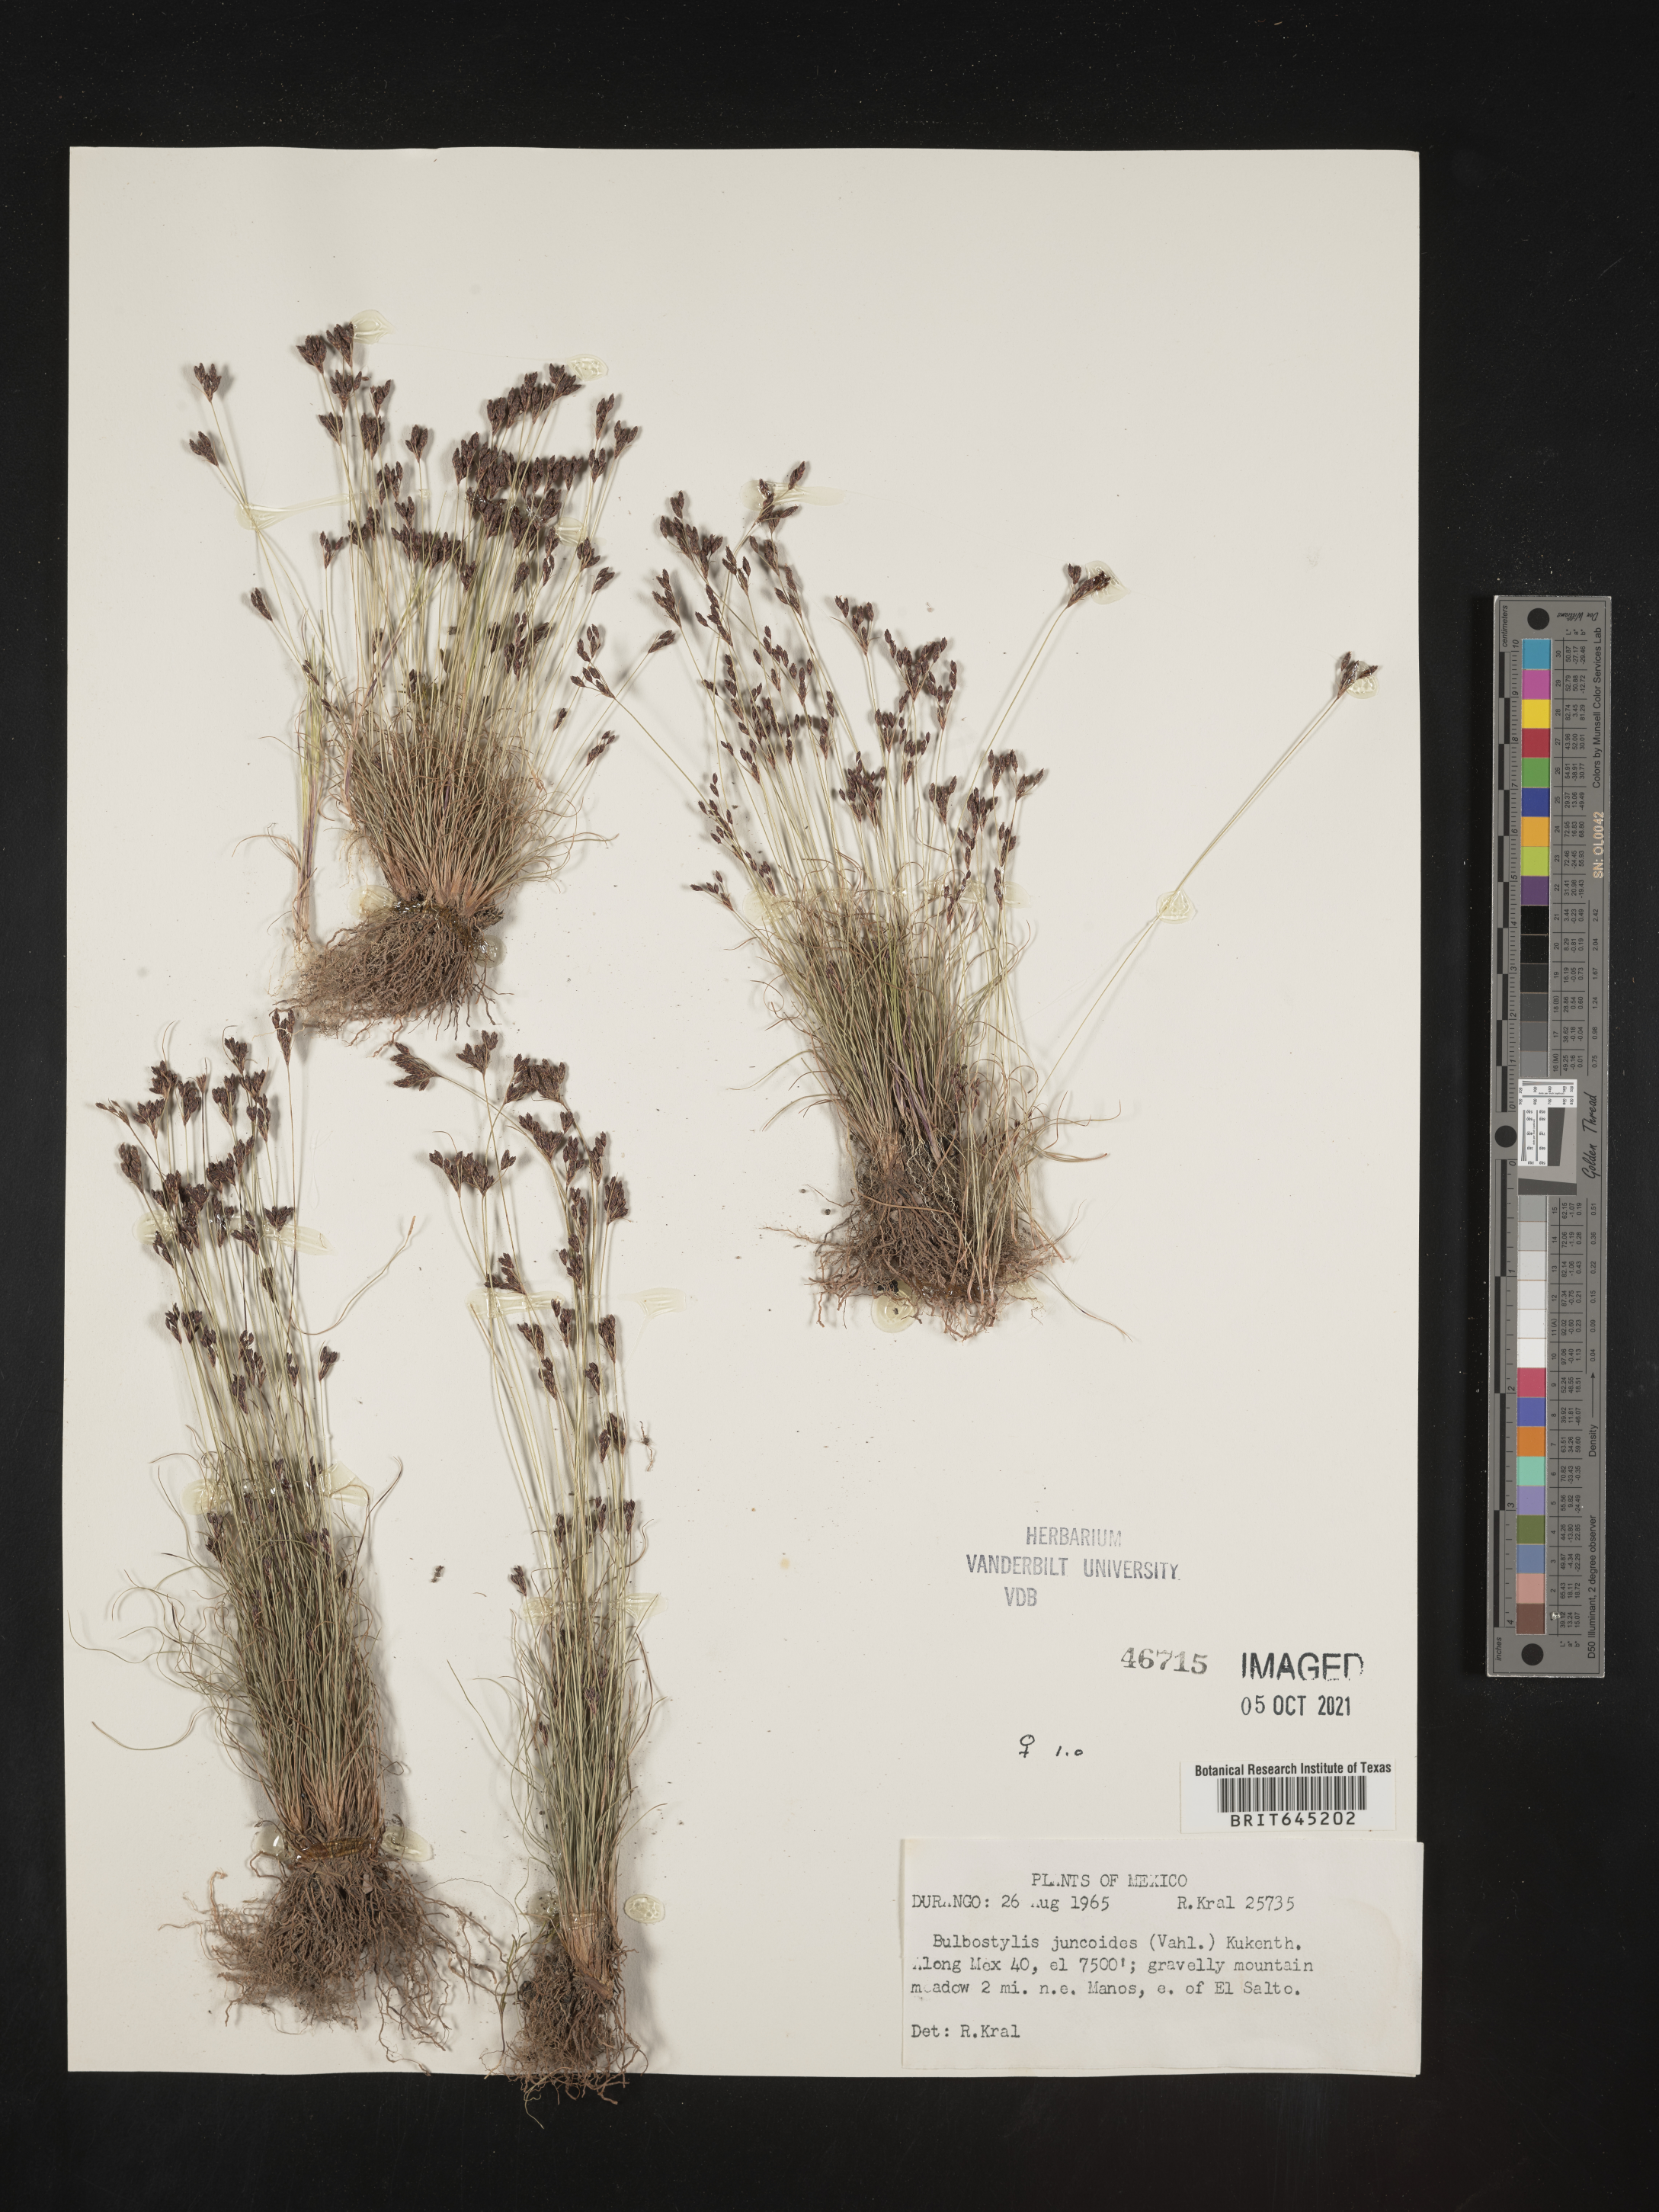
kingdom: Plantae
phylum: Tracheophyta
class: Liliopsida
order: Poales
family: Cyperaceae
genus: Bulbostylis
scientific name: Bulbostylis juncoides
